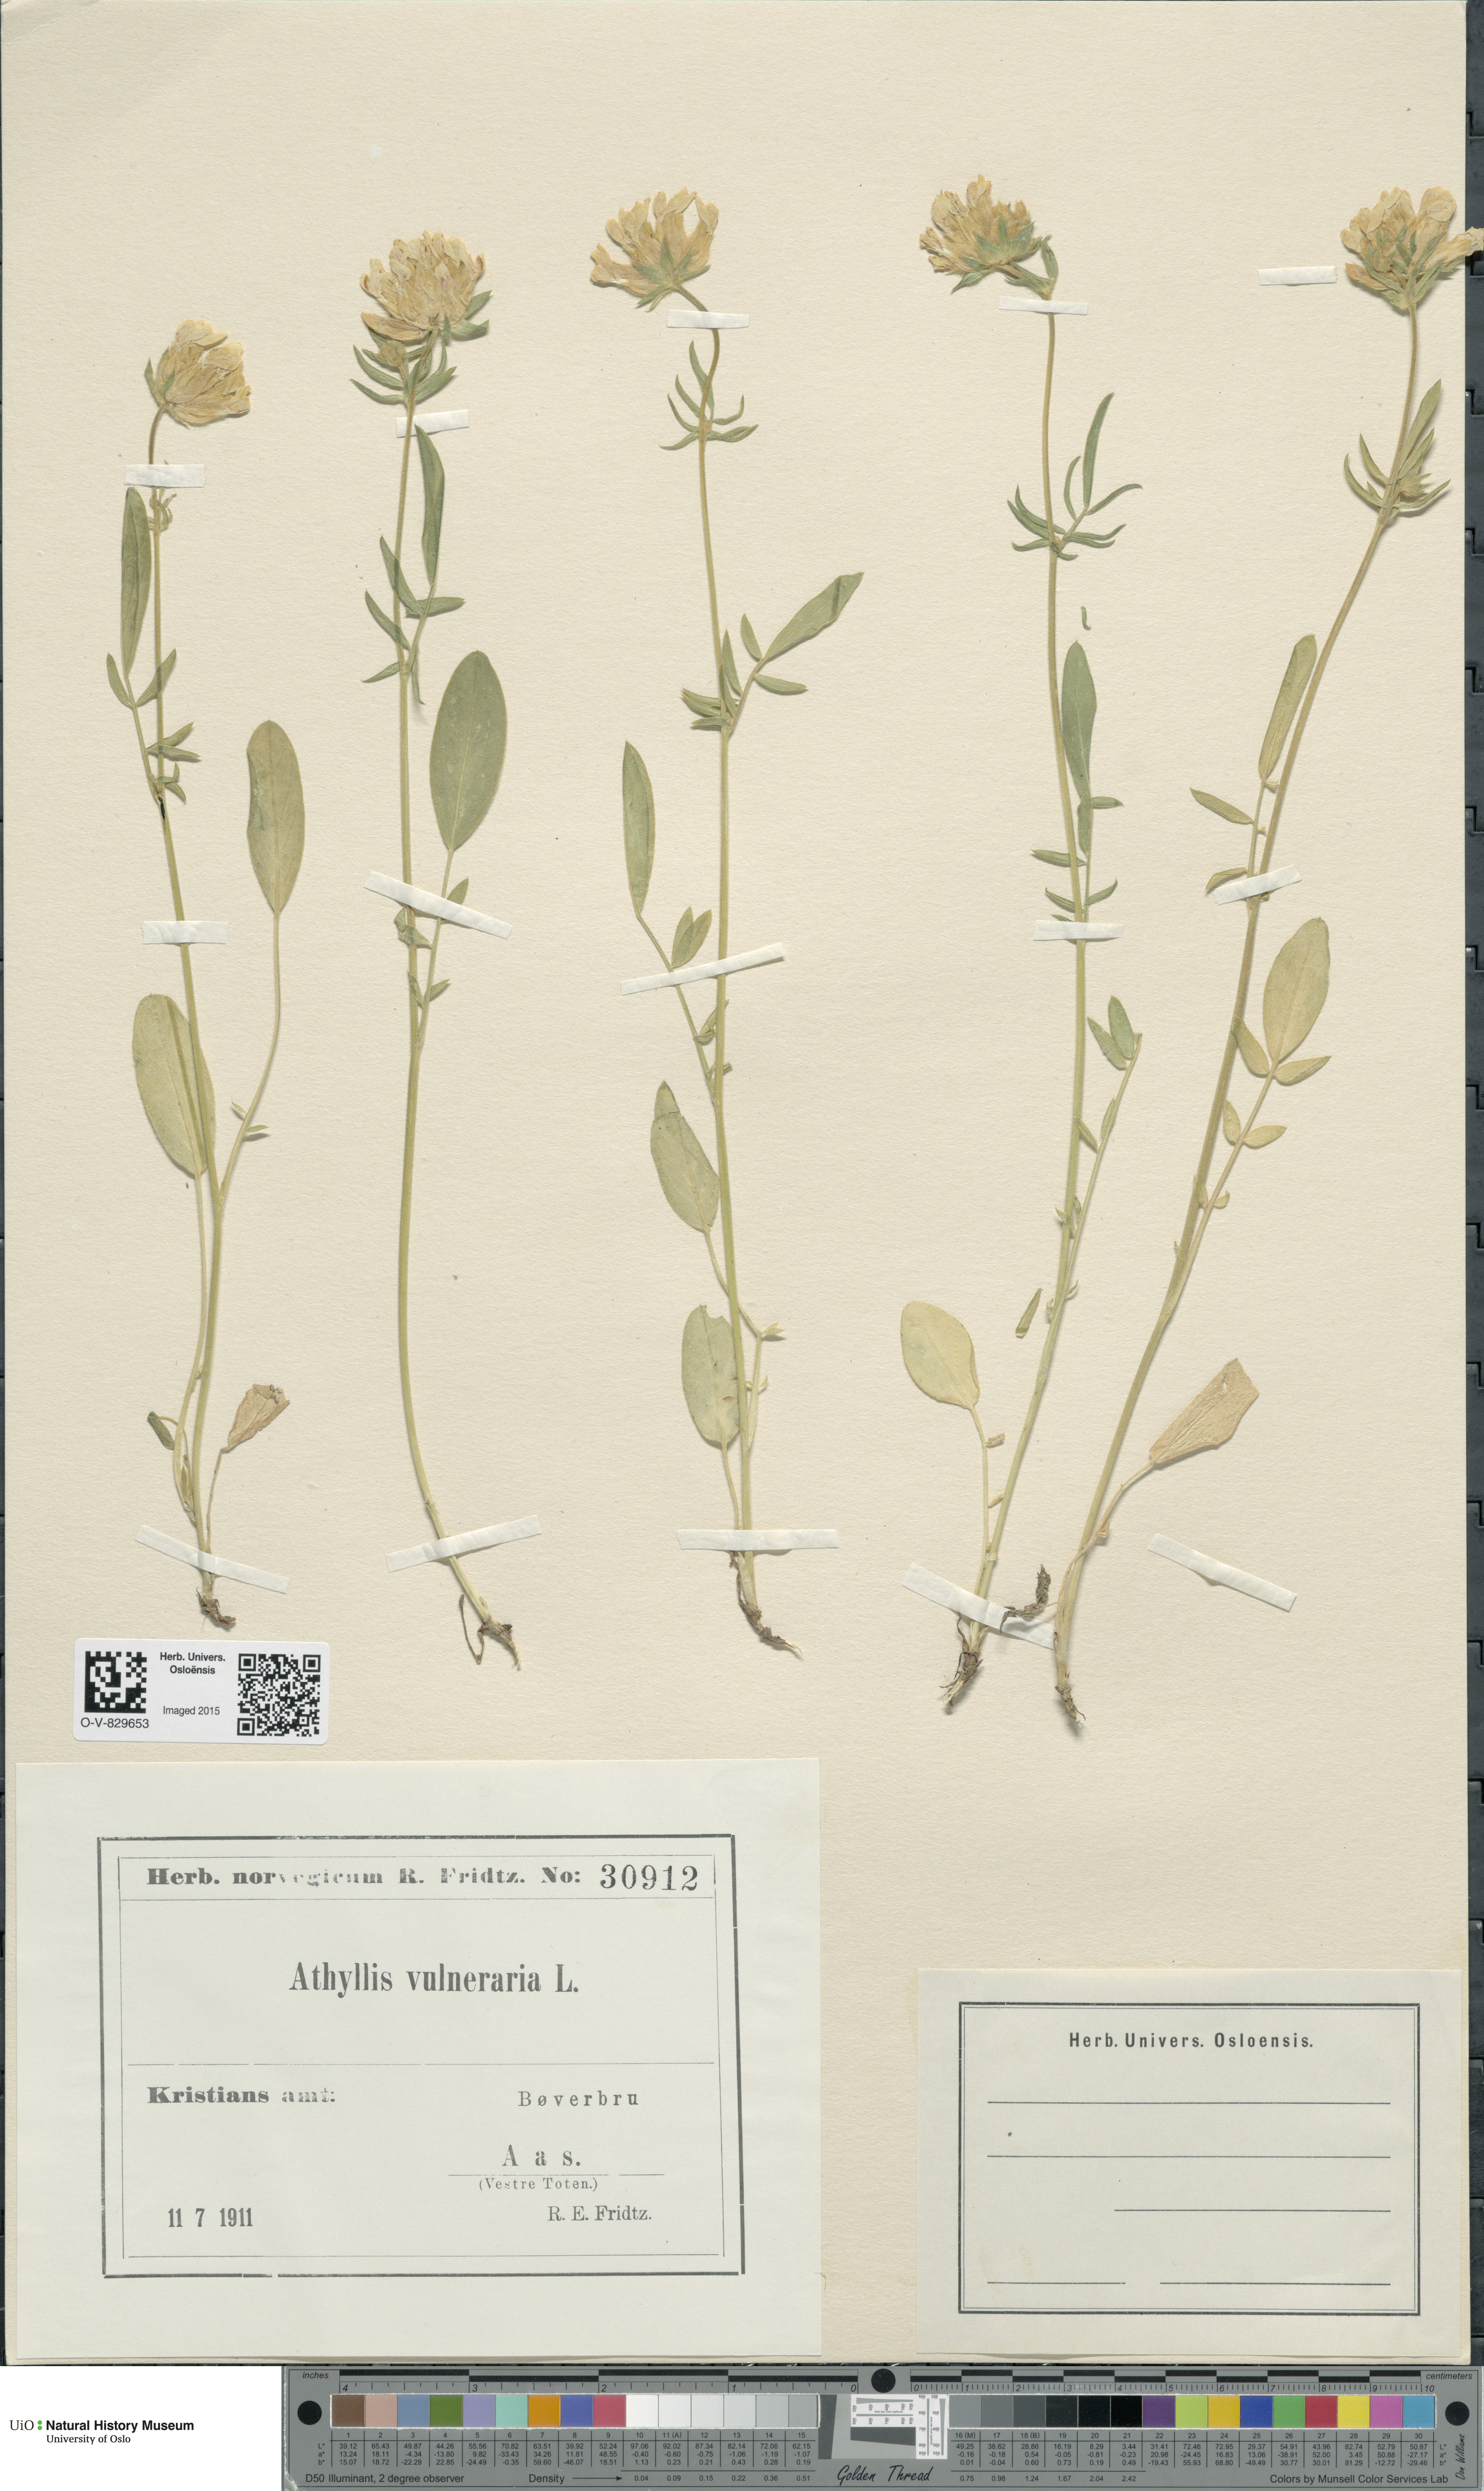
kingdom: Plantae
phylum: Tracheophyta
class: Magnoliopsida
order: Fabales
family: Fabaceae
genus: Anthyllis
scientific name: Anthyllis vulneraria
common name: Kidney vetch
